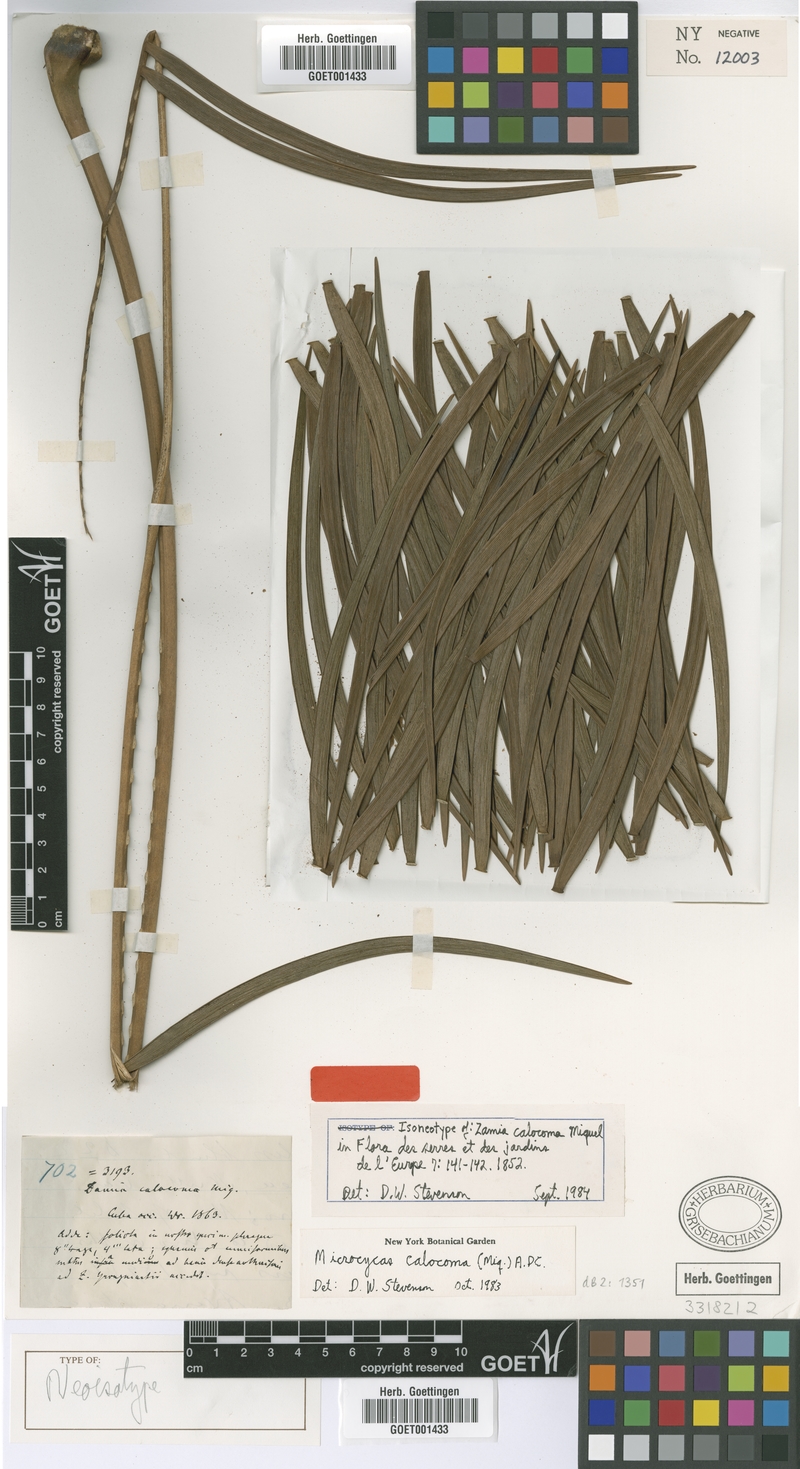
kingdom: Plantae
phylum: Tracheophyta
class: Cycadopsida
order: Cycadales
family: Zamiaceae
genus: Microcycas
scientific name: Microcycas calocoma
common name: Cork palm
